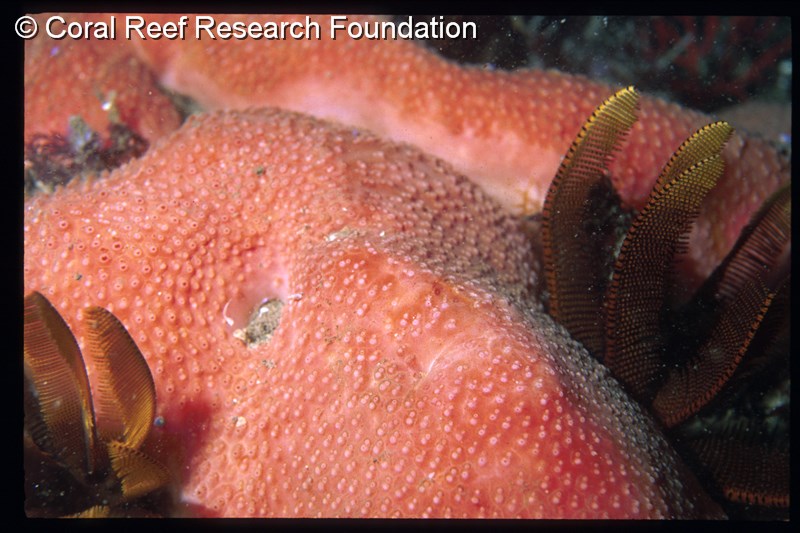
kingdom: Animalia
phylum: Chordata
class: Ascidiacea
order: Aplousobranchia
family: Polycitoridae
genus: Eucoelium
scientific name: Eucoelium pallidus
